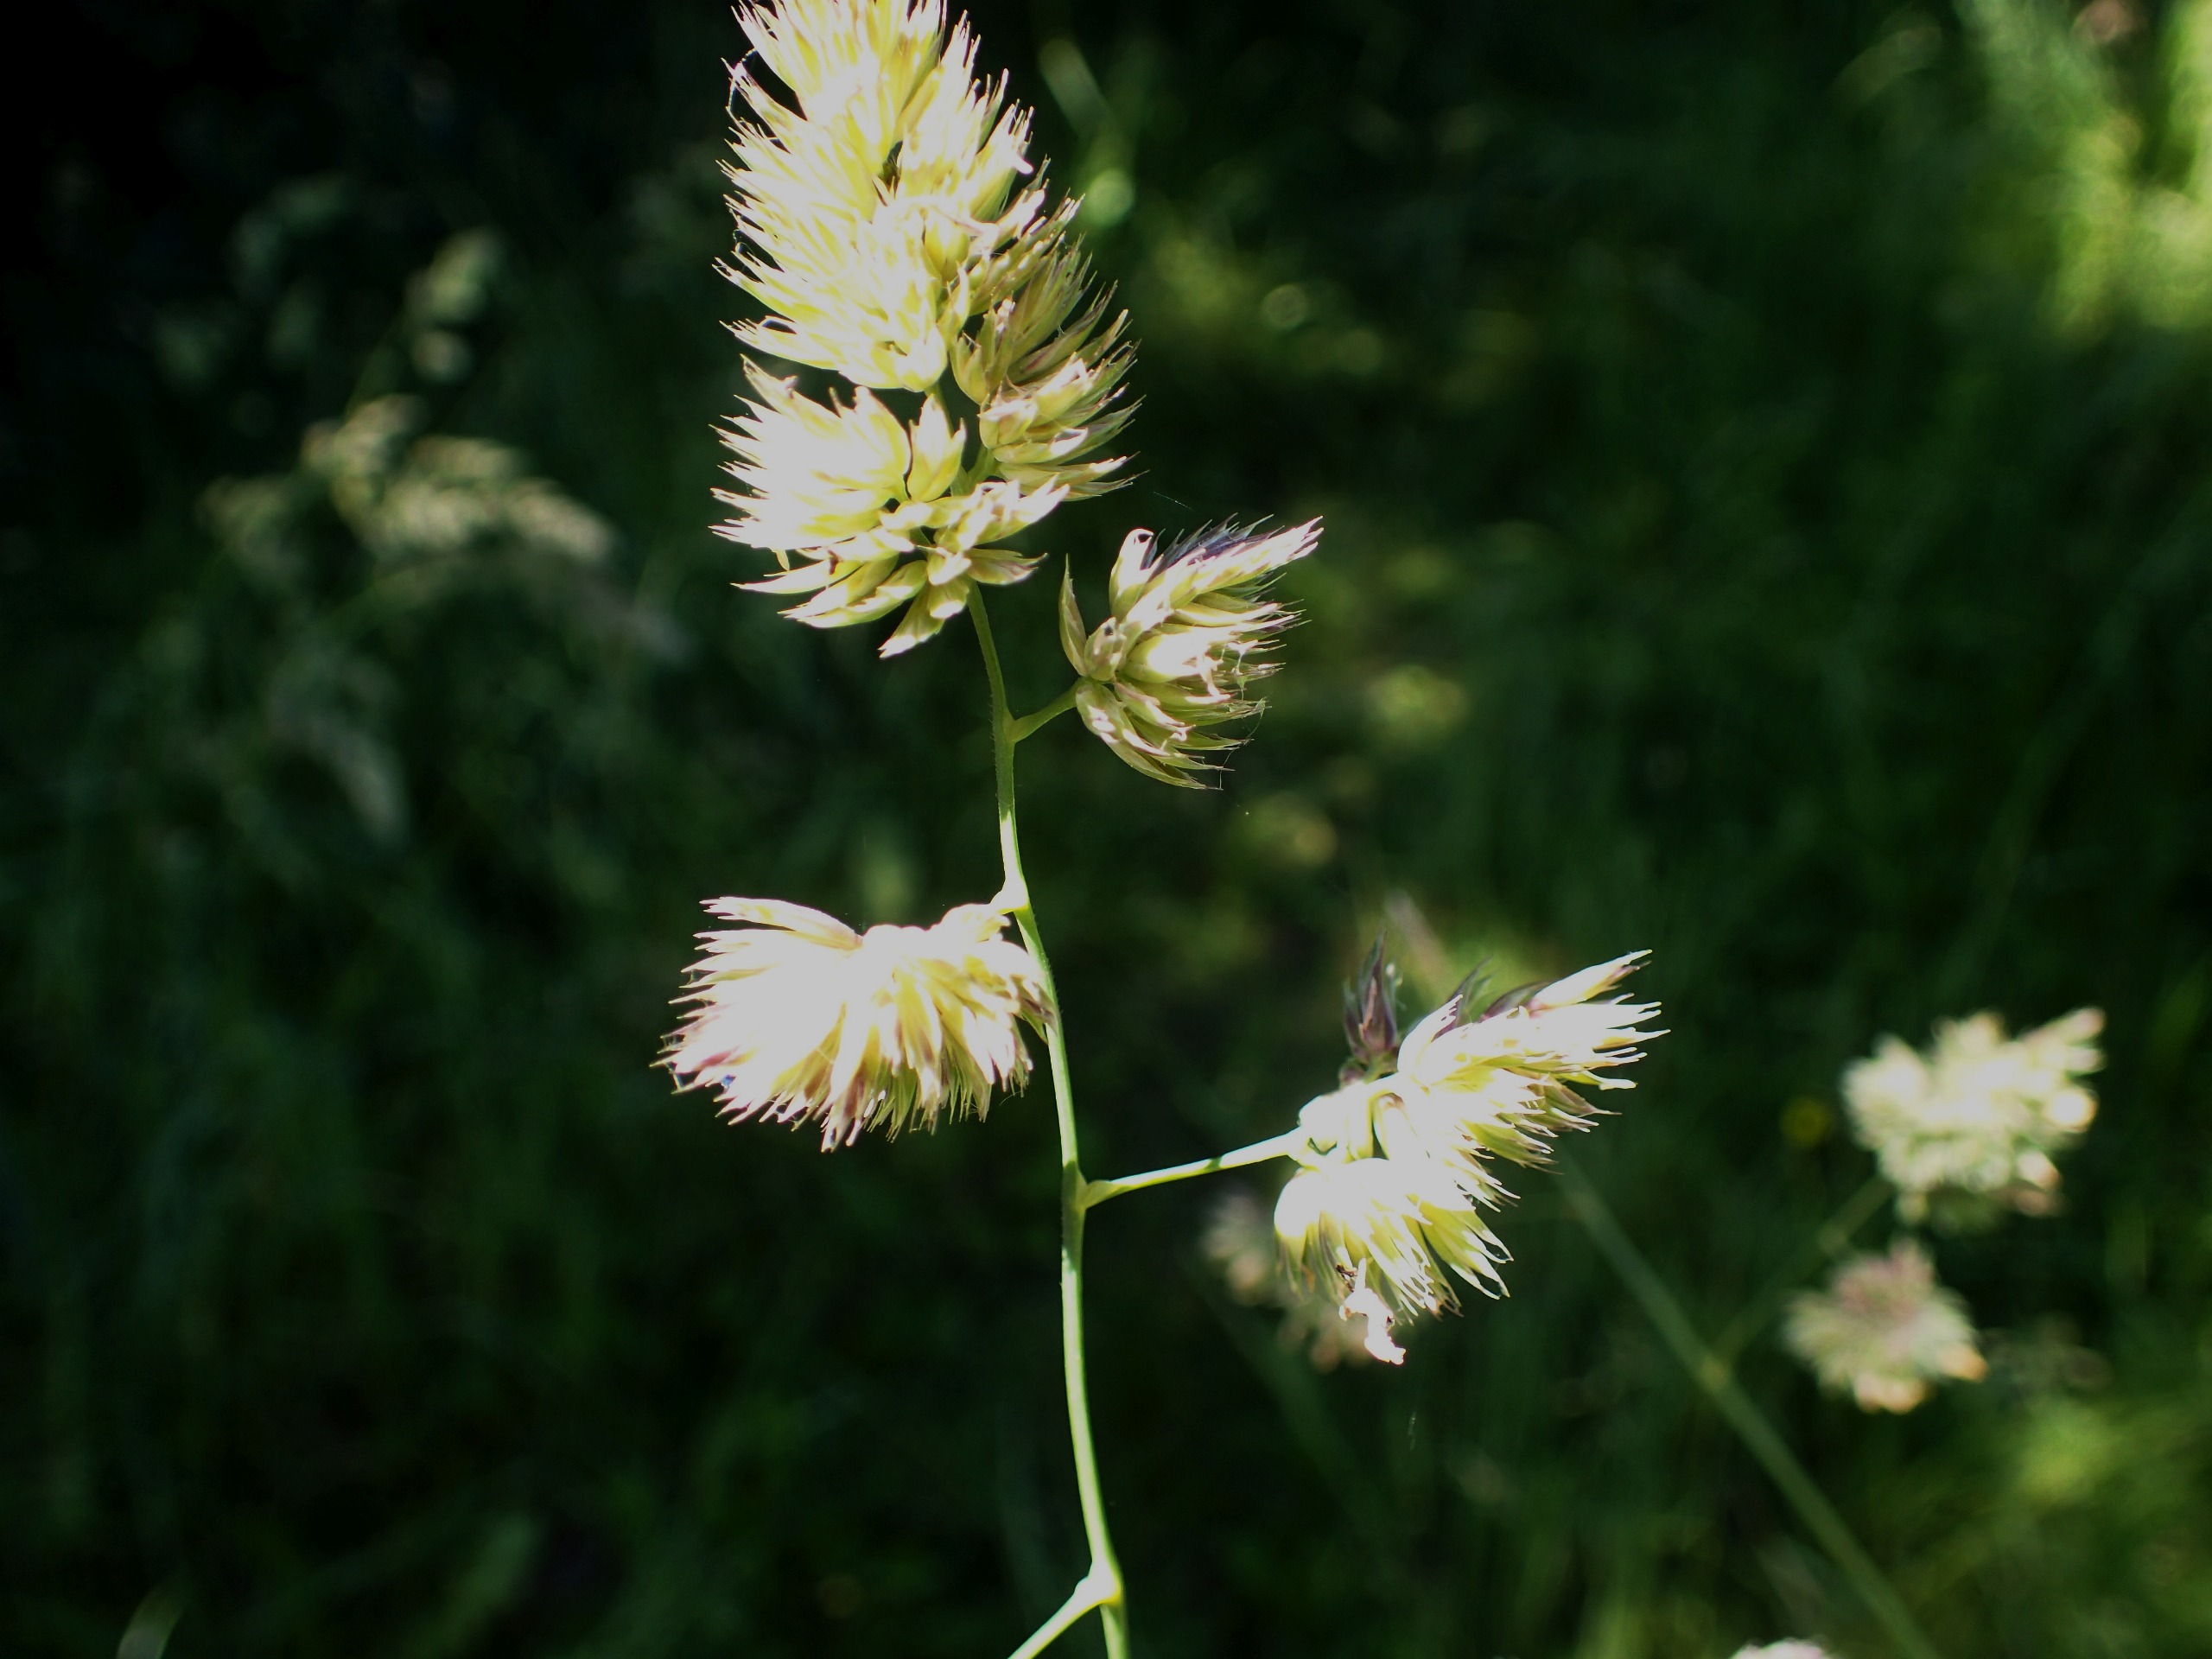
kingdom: Plantae
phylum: Tracheophyta
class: Liliopsida
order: Poales
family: Poaceae
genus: Dactylis
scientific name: Dactylis glomerata
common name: Almindelig hundegræs
